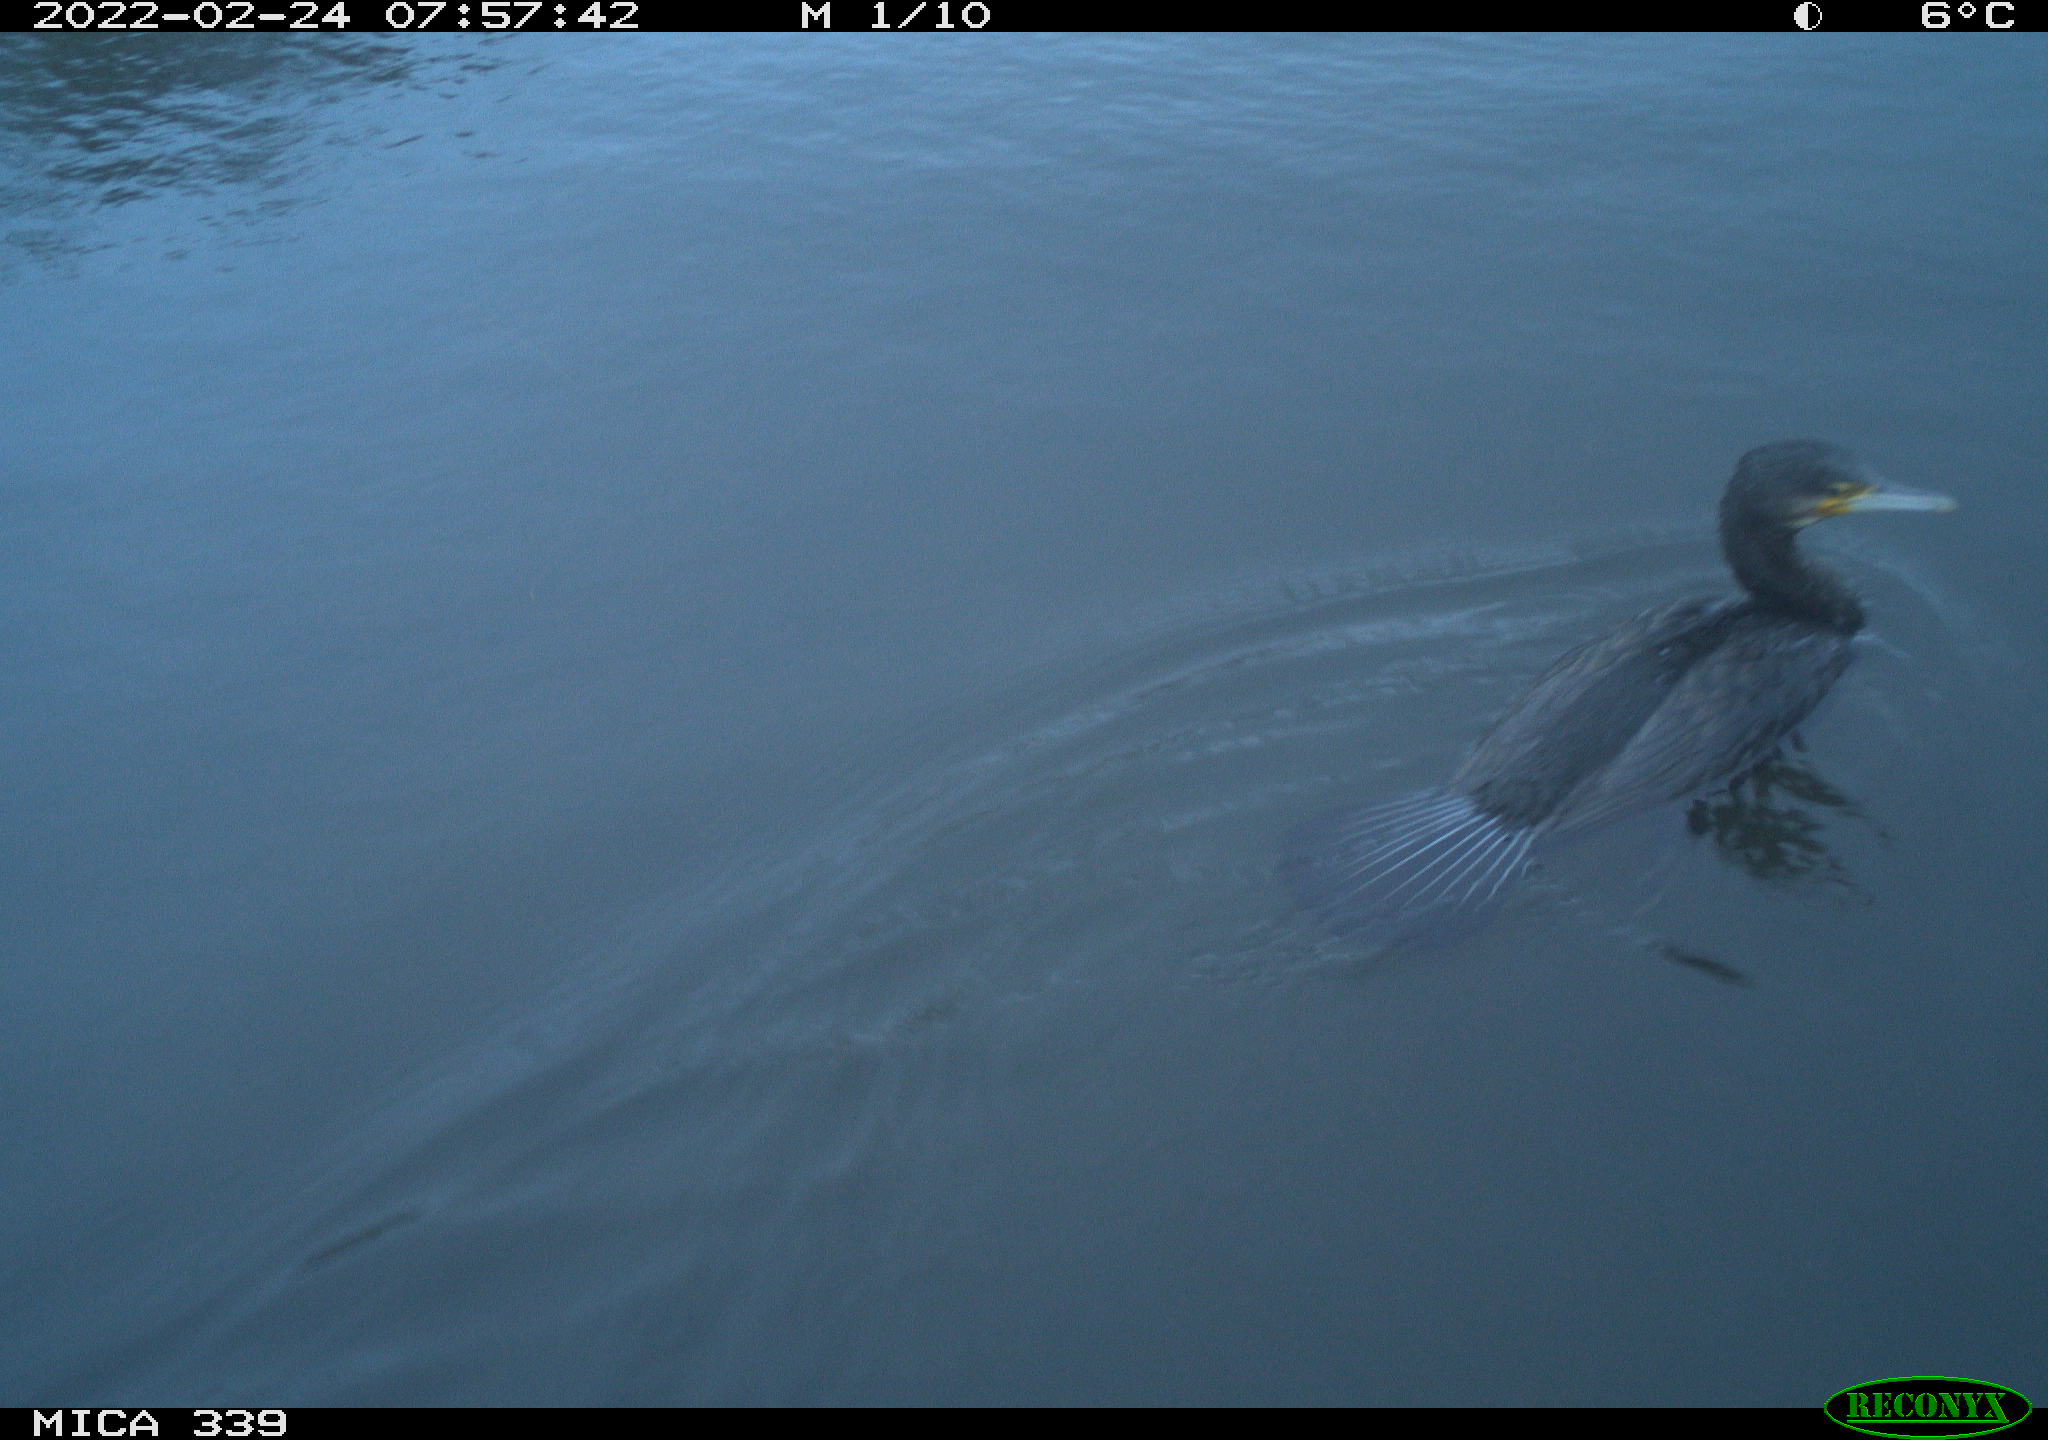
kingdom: Animalia
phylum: Chordata
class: Aves
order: Suliformes
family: Phalacrocoracidae
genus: Phalacrocorax
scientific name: Phalacrocorax carbo
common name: Great cormorant
